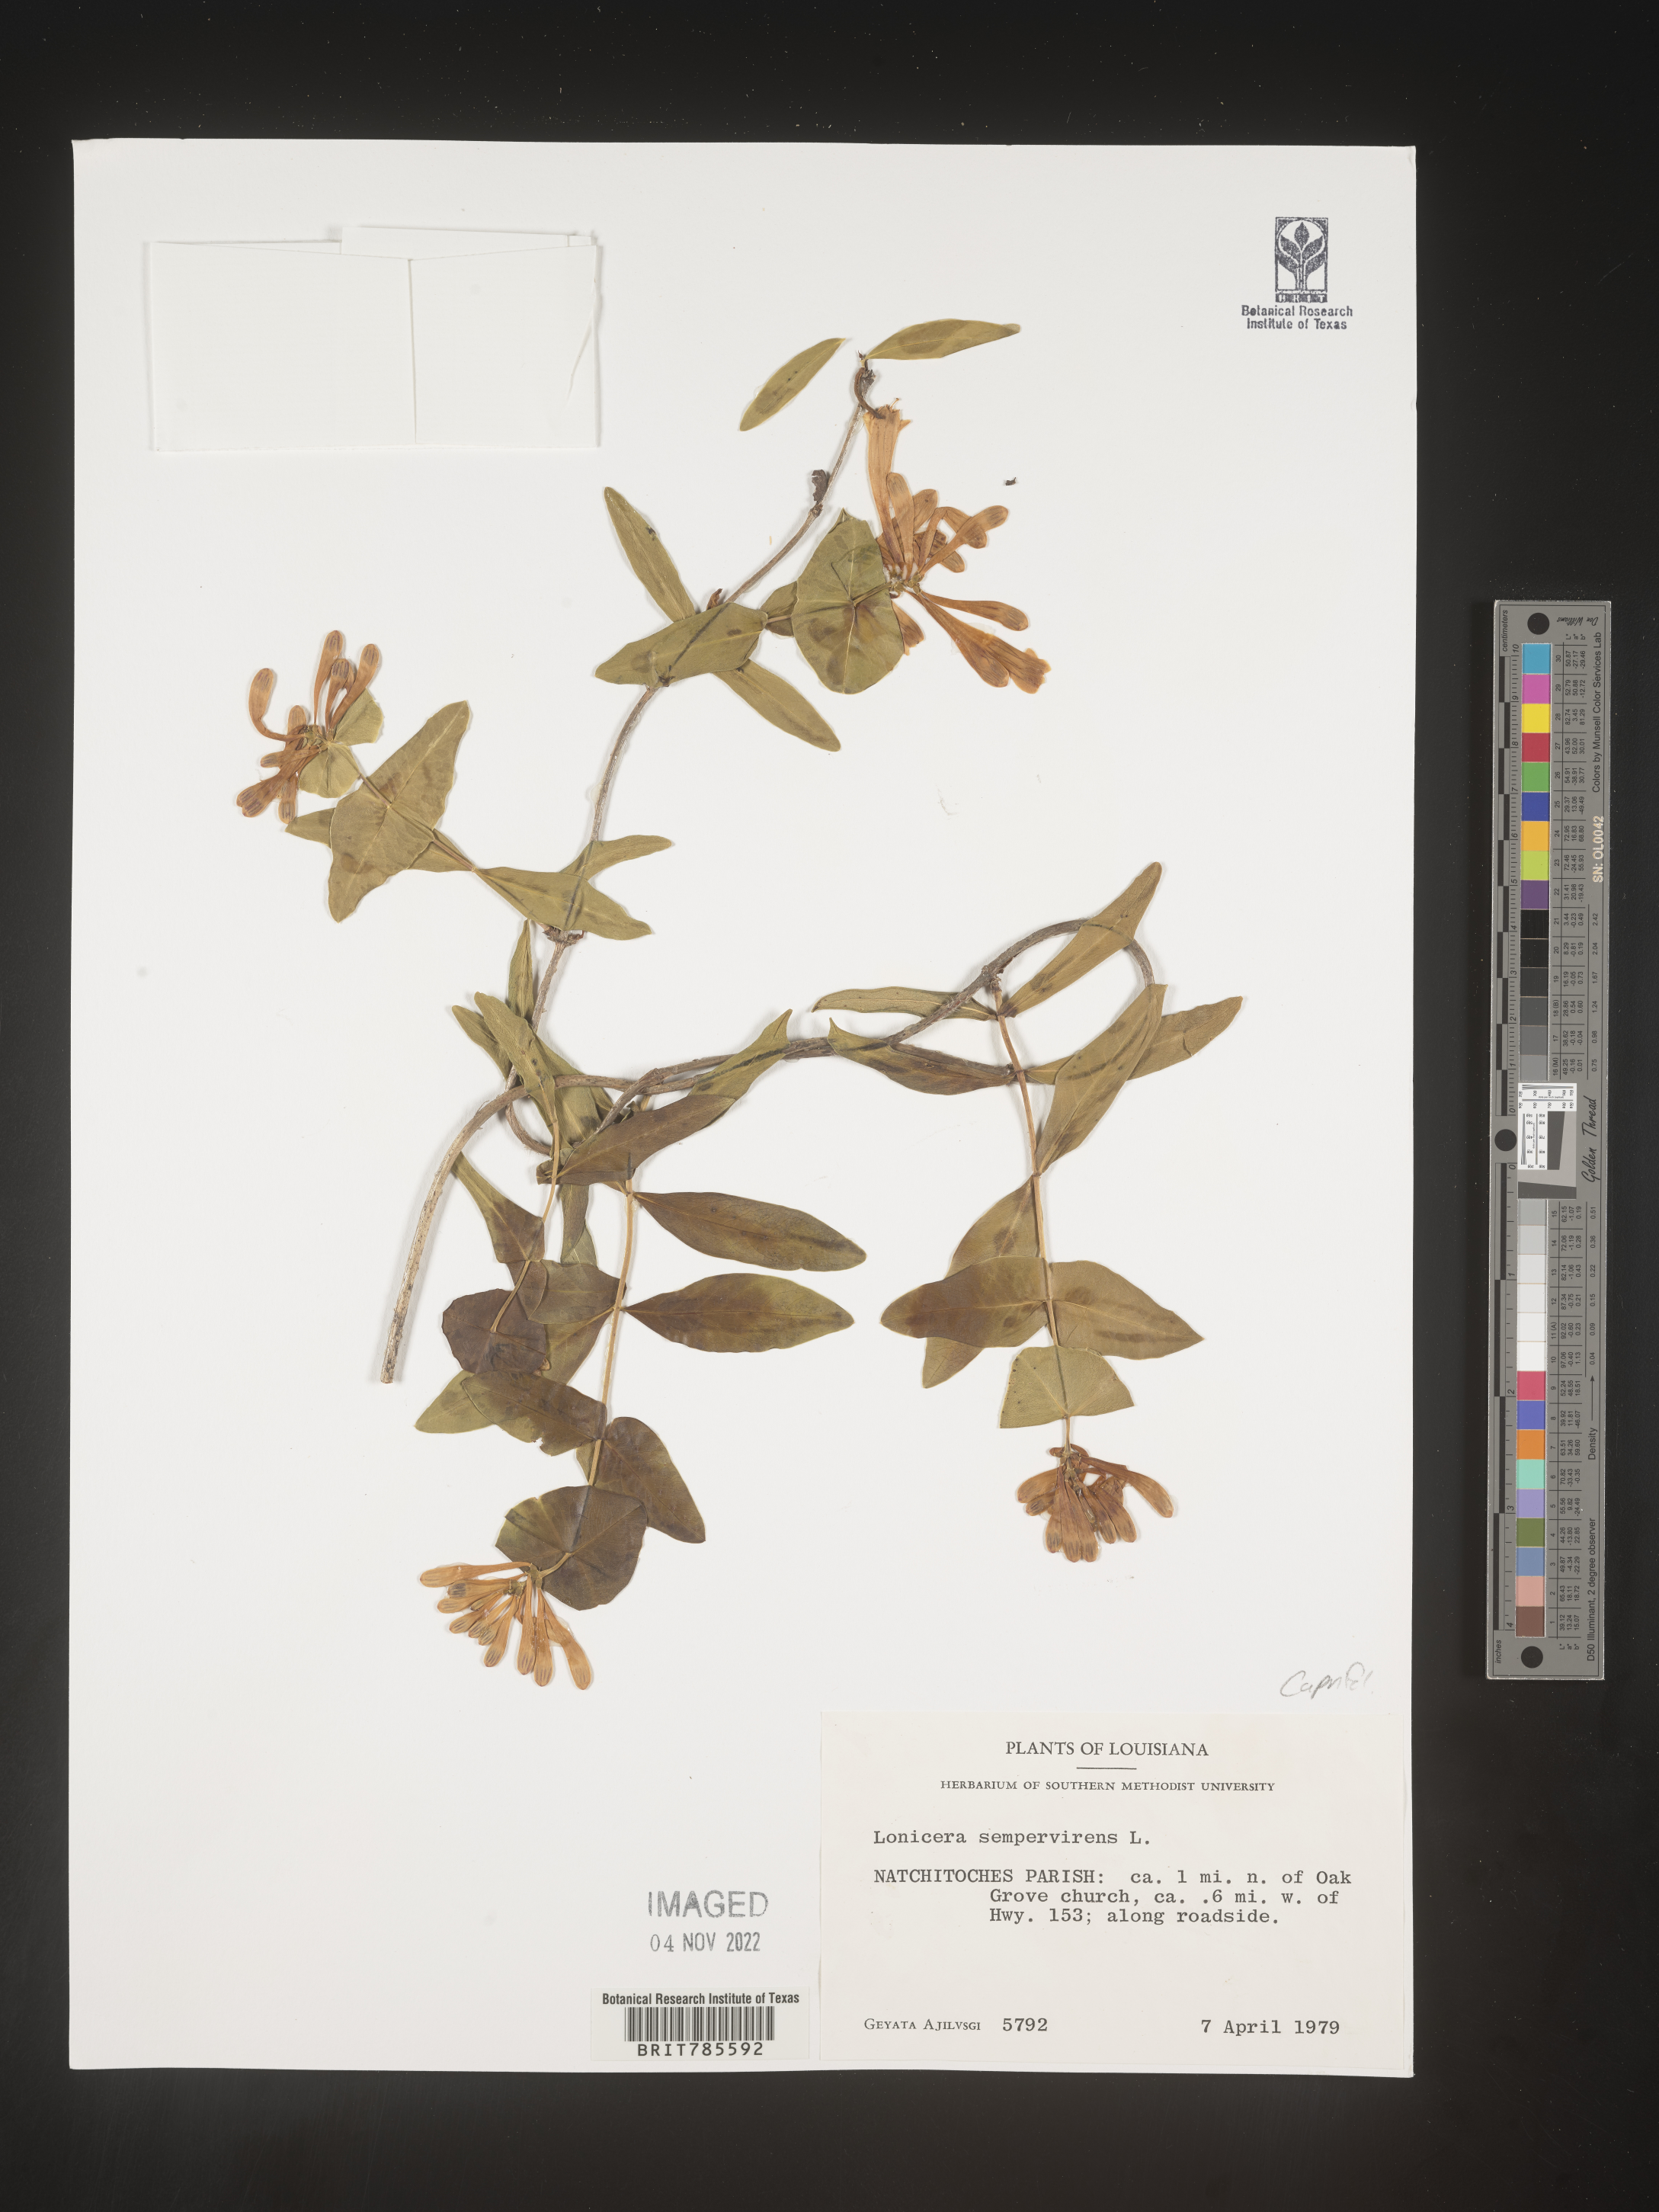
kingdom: Plantae
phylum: Tracheophyta
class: Magnoliopsida
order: Dipsacales
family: Caprifoliaceae
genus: Lonicera
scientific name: Lonicera sempervirens
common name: Coral honeysuckle
